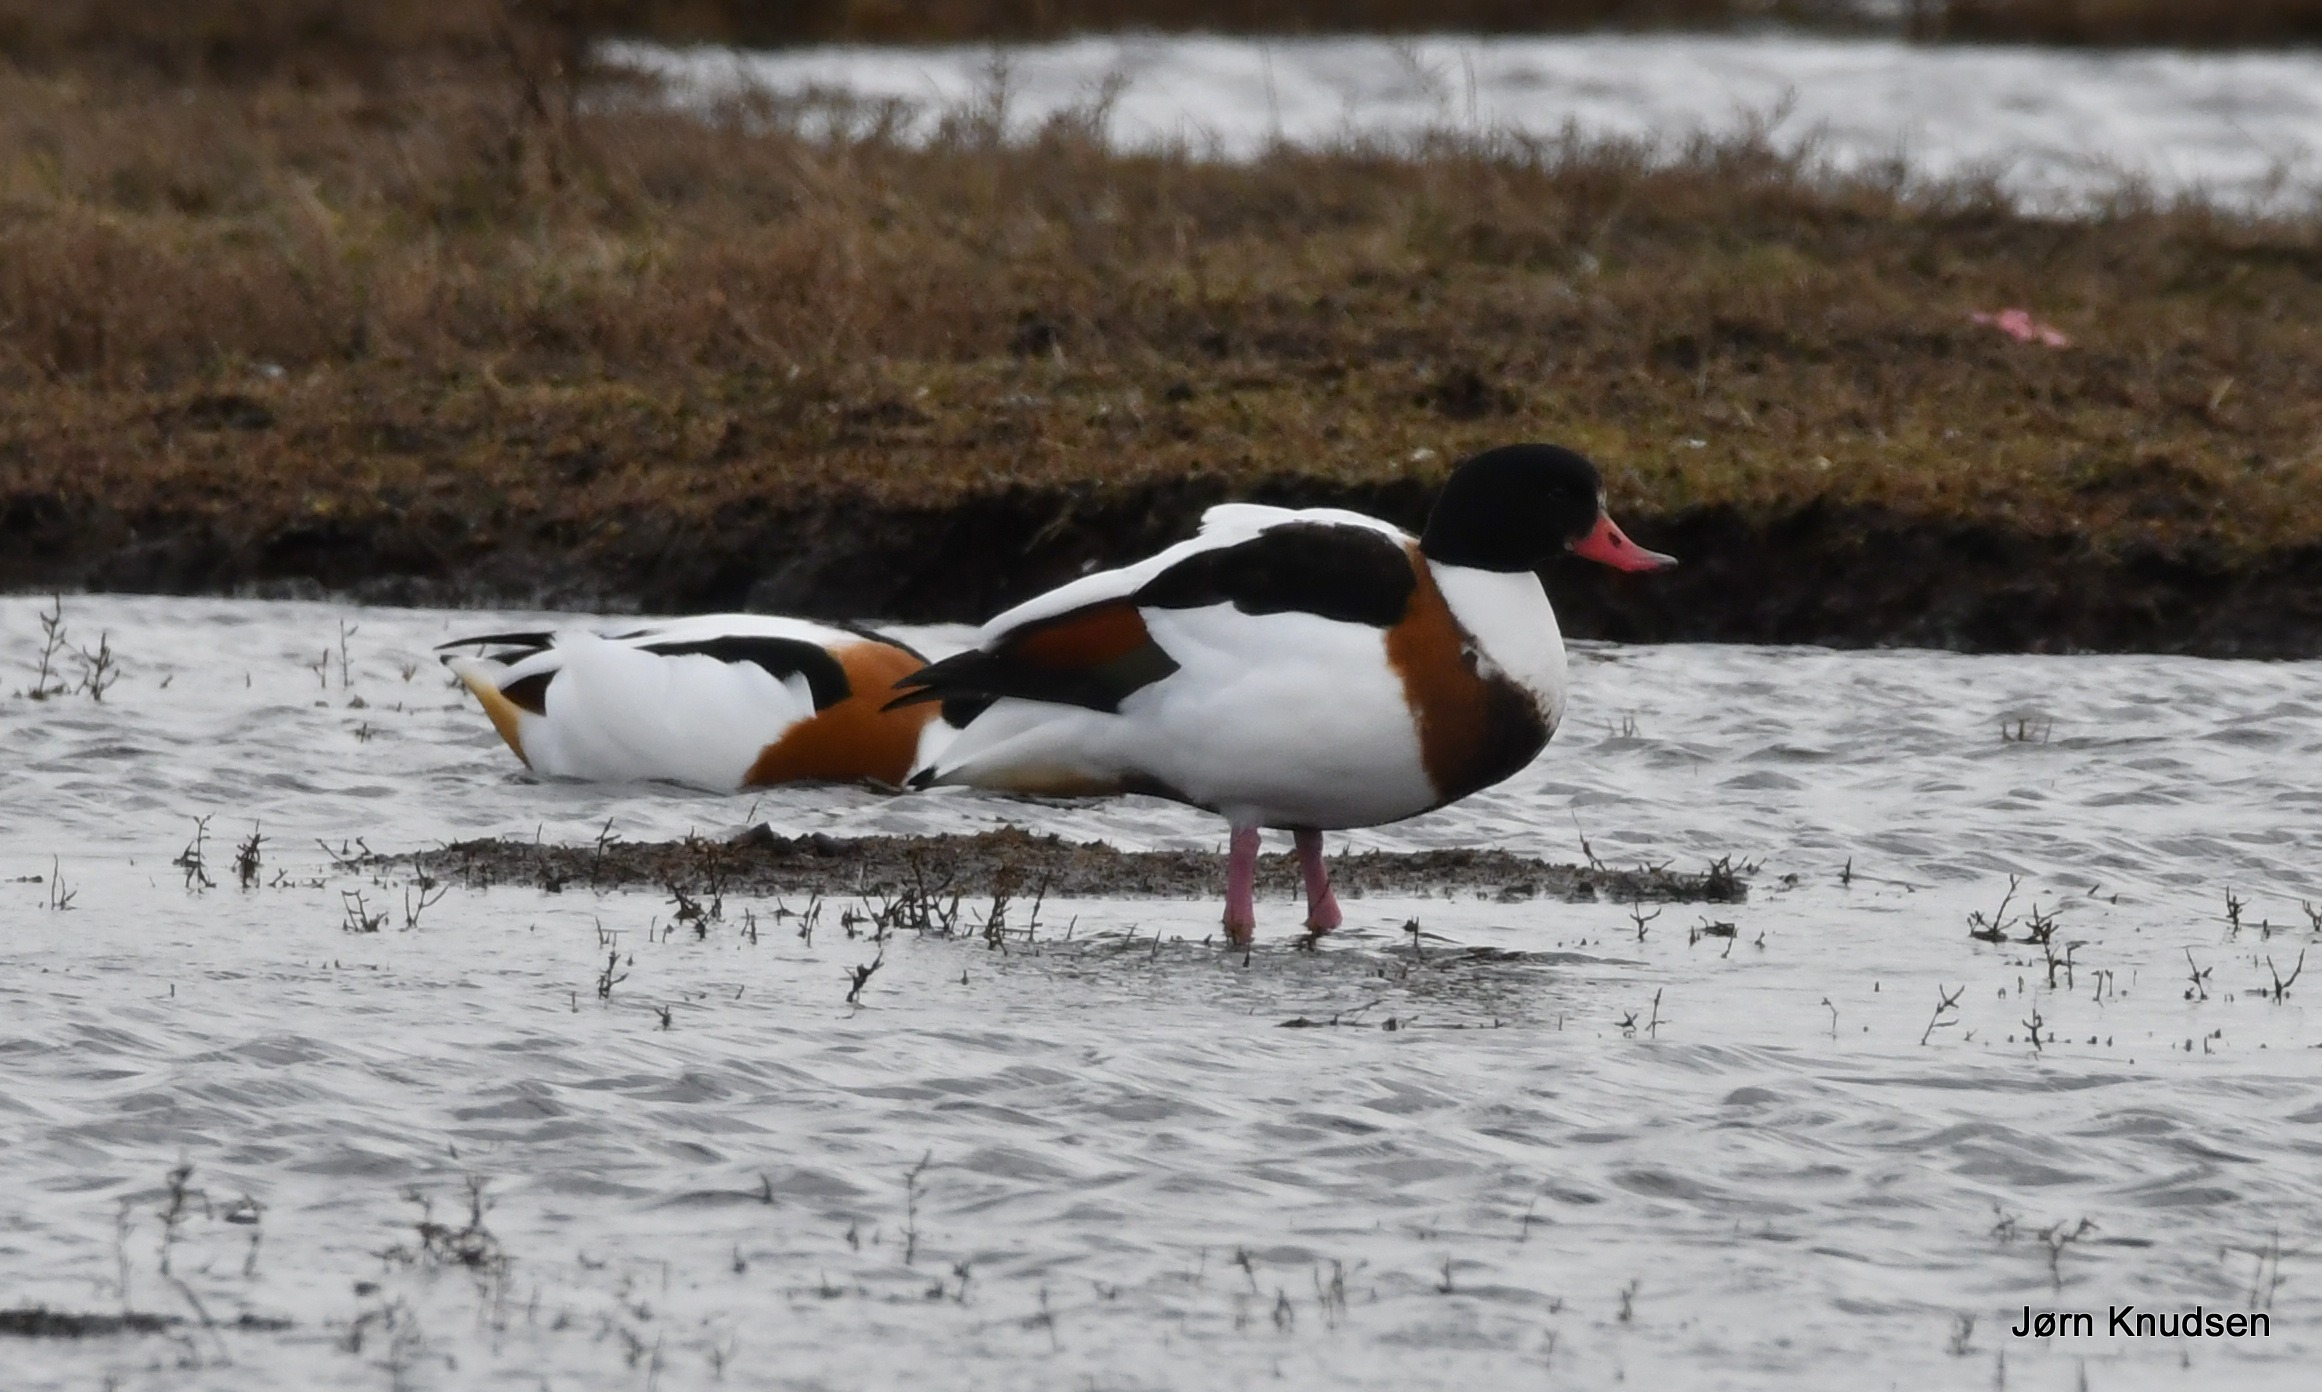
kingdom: Animalia
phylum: Chordata
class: Aves
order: Anseriformes
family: Anatidae
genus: Tadorna
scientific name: Tadorna tadorna
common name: Gravand
